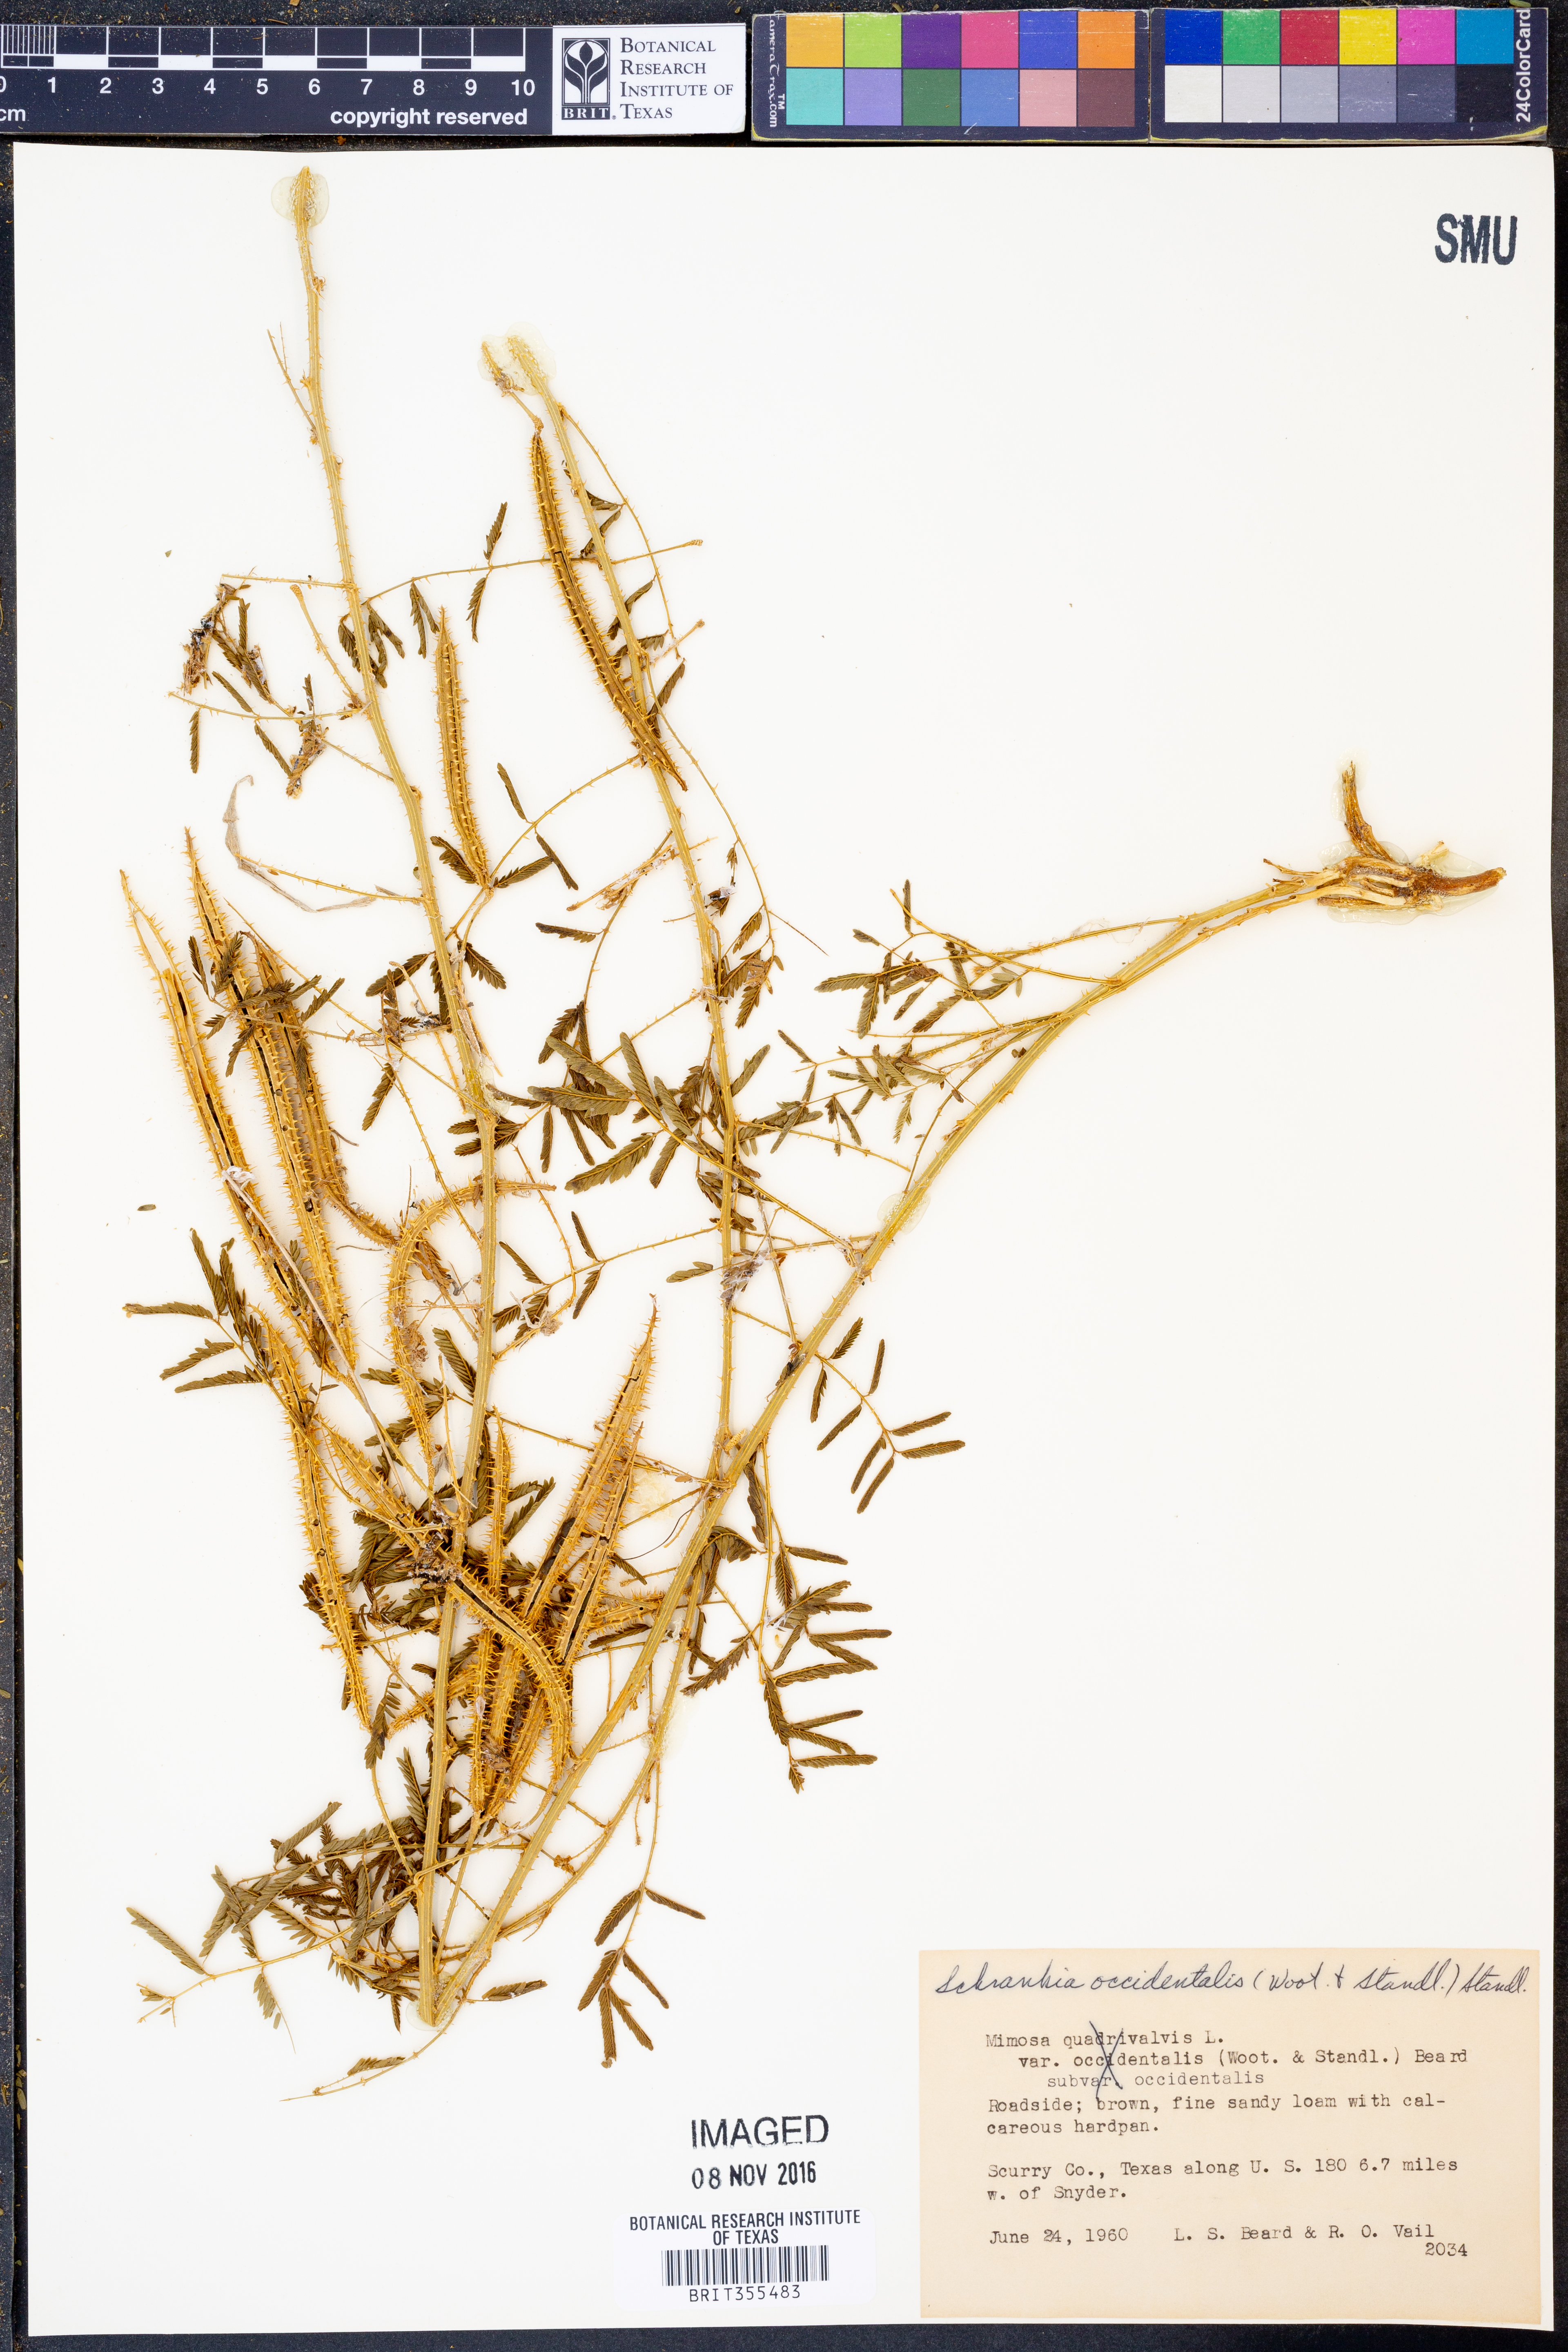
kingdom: Plantae
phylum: Tracheophyta
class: Magnoliopsida
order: Fabales
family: Fabaceae
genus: Mimosa
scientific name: Mimosa quadrivalvis
